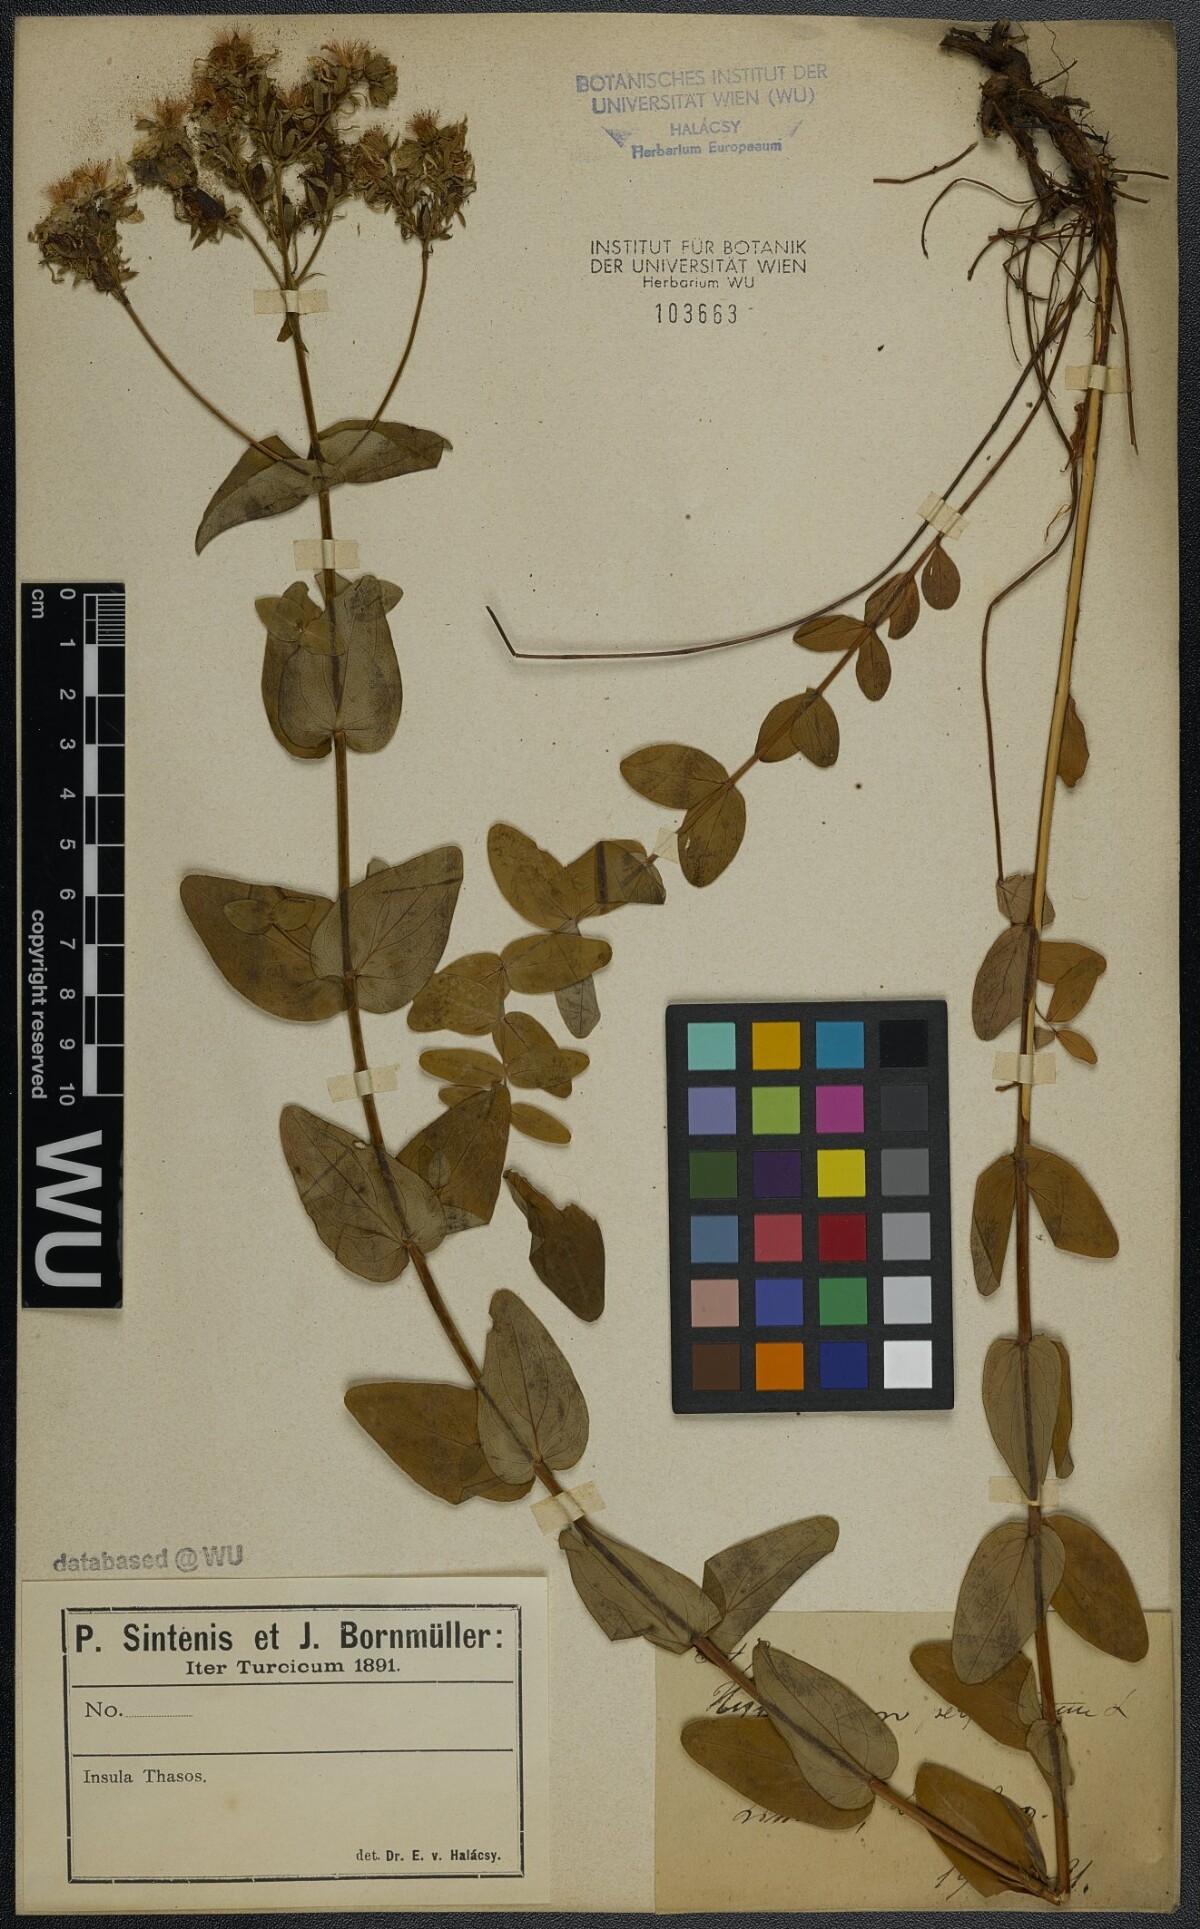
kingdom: Plantae
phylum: Tracheophyta
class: Magnoliopsida
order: Malpighiales
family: Hypericaceae
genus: Hypericum
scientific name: Hypericum perfoliatum
